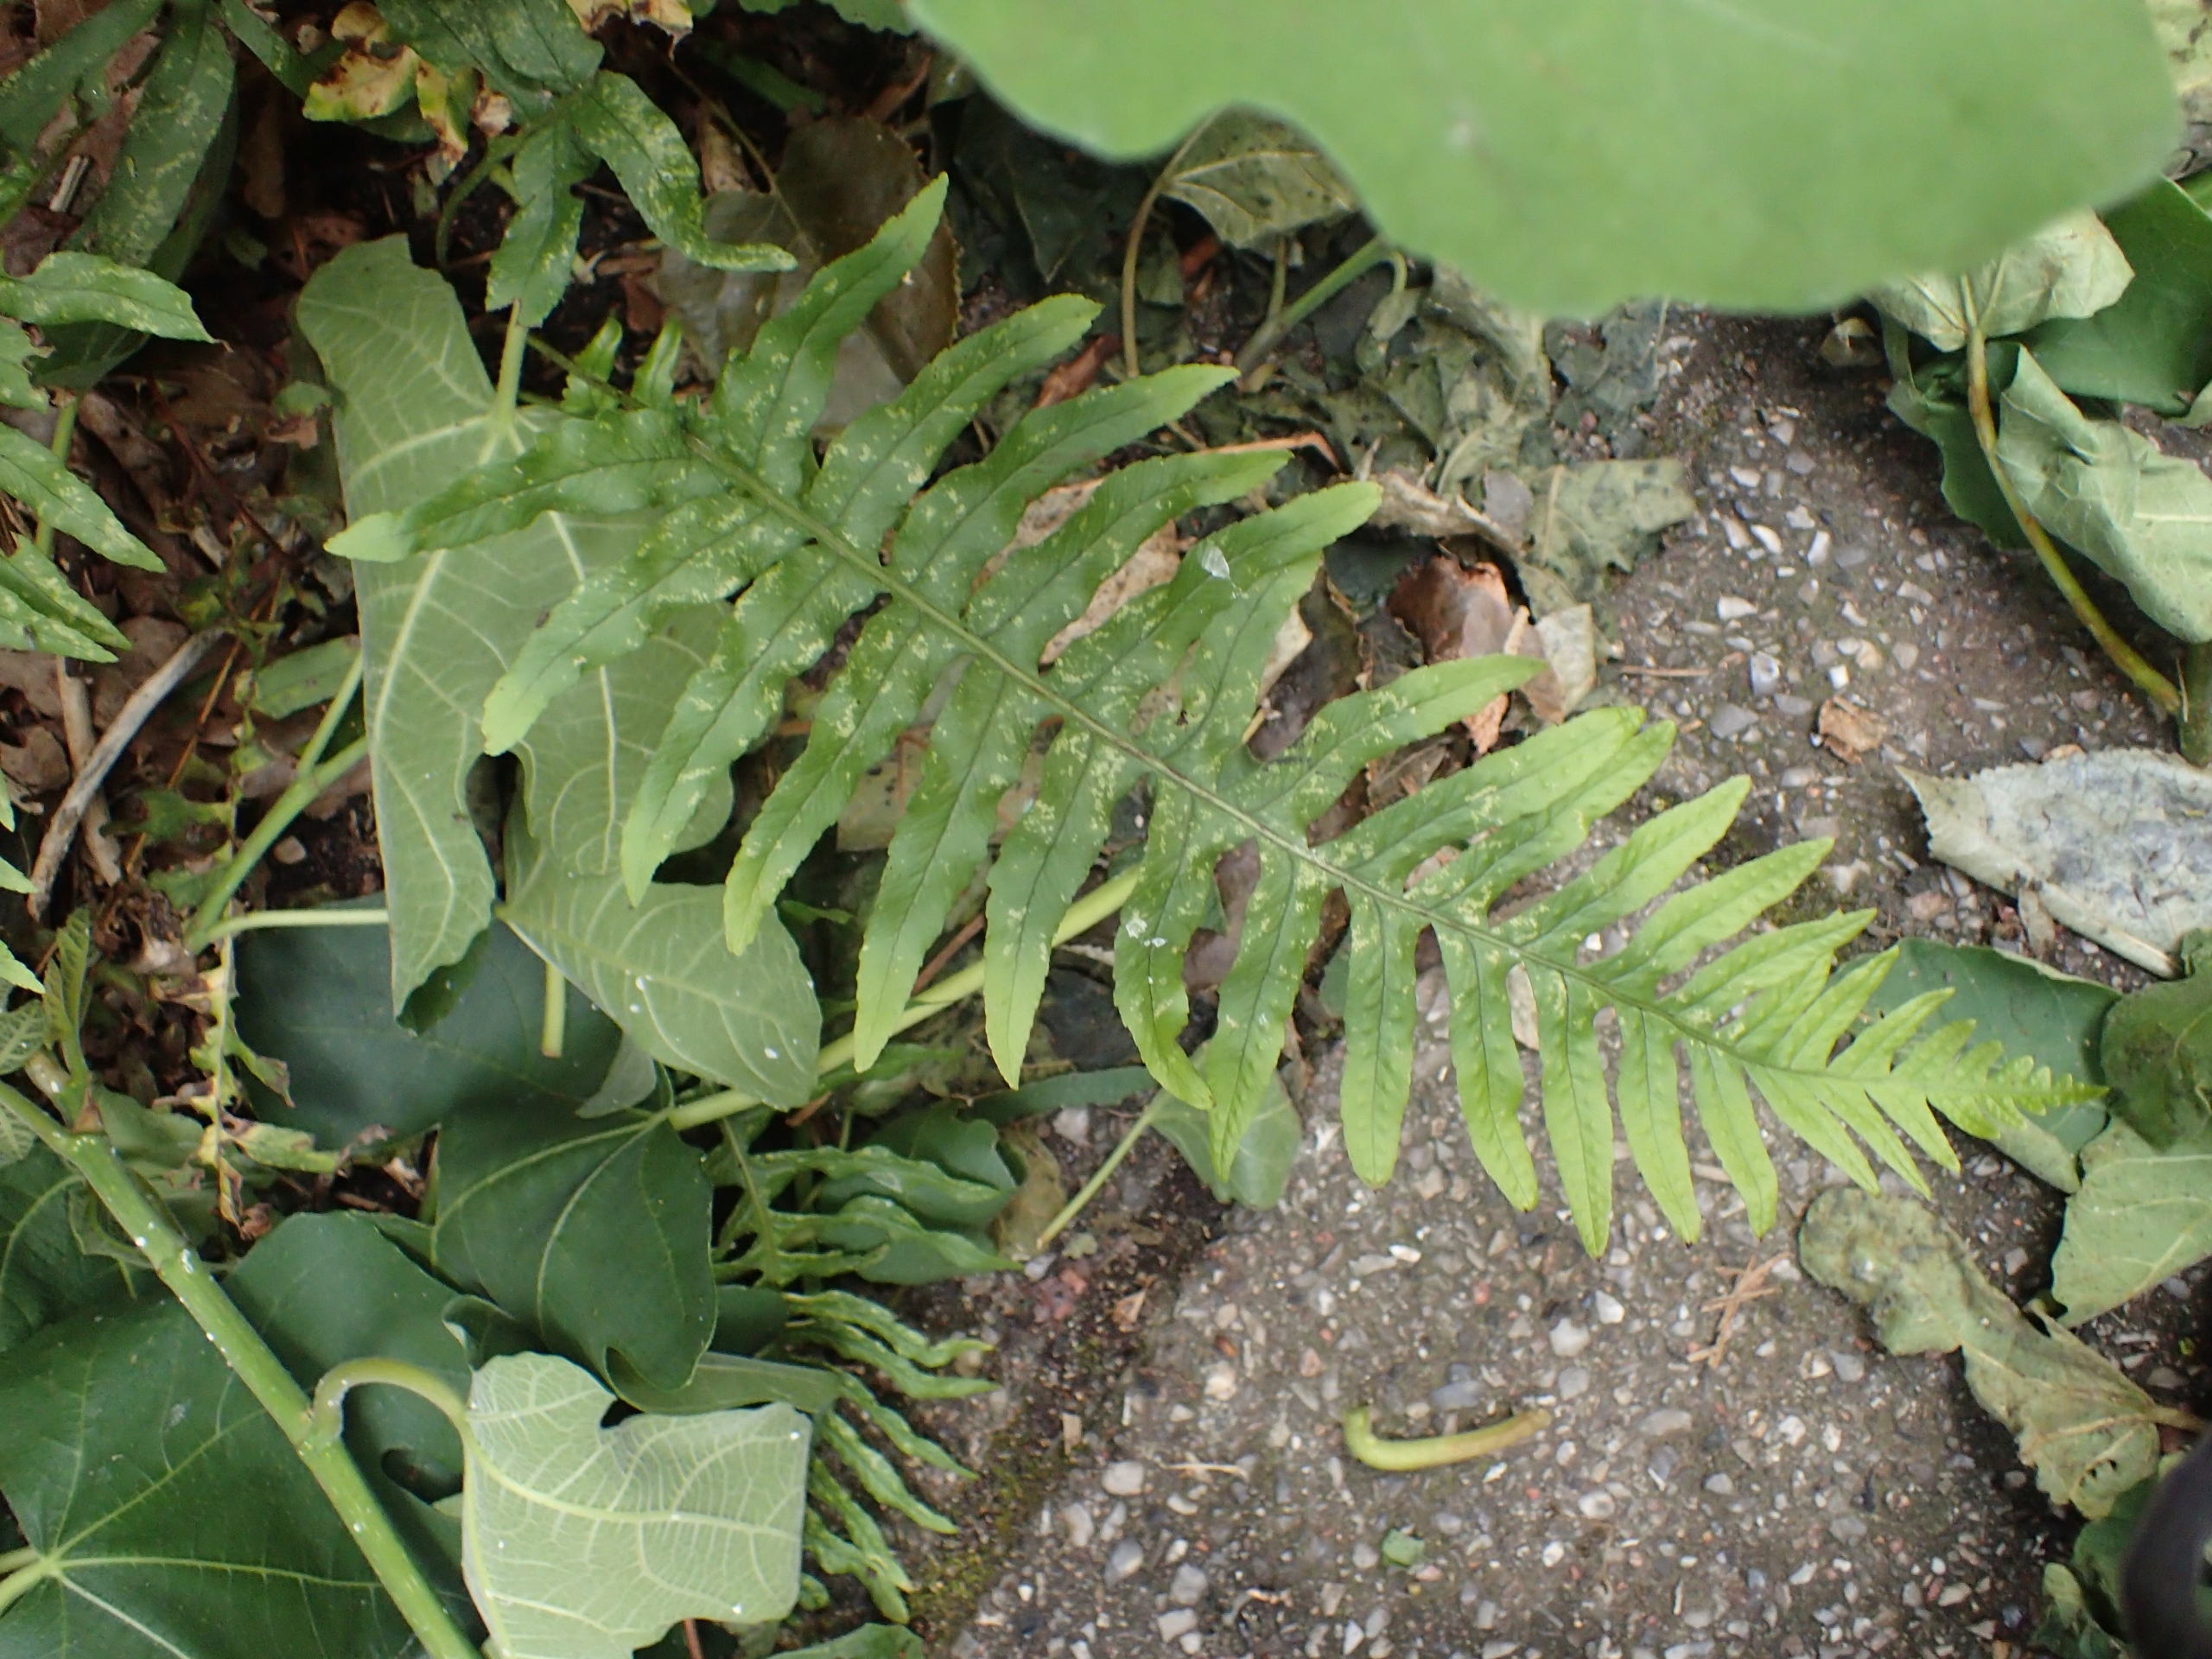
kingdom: Plantae
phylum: Tracheophyta
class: Polypodiopsida
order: Polypodiales
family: Polypodiaceae
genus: Polypodium
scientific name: Polypodium vulgare
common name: Almindelig engelsød
